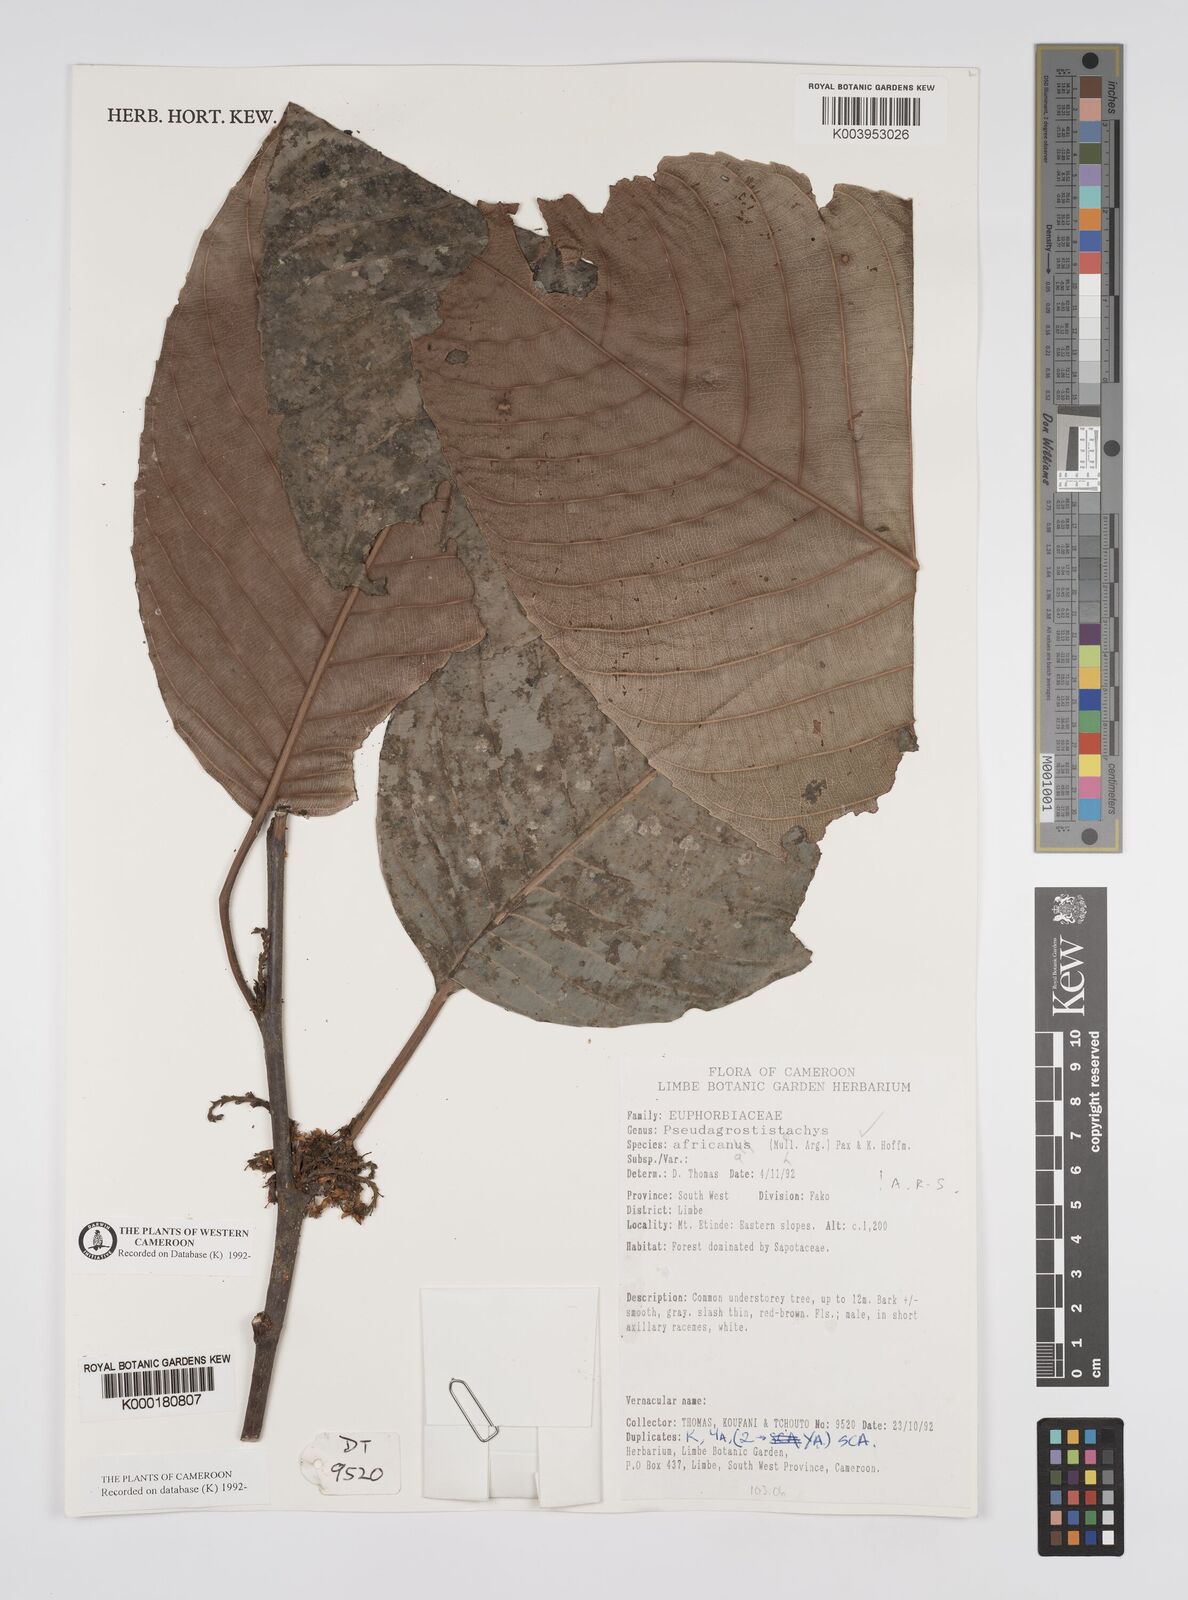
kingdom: Plantae
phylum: Tracheophyta
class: Magnoliopsida
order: Malpighiales
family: Euphorbiaceae
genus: Pseudagrostistachys
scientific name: Pseudagrostistachys africana
